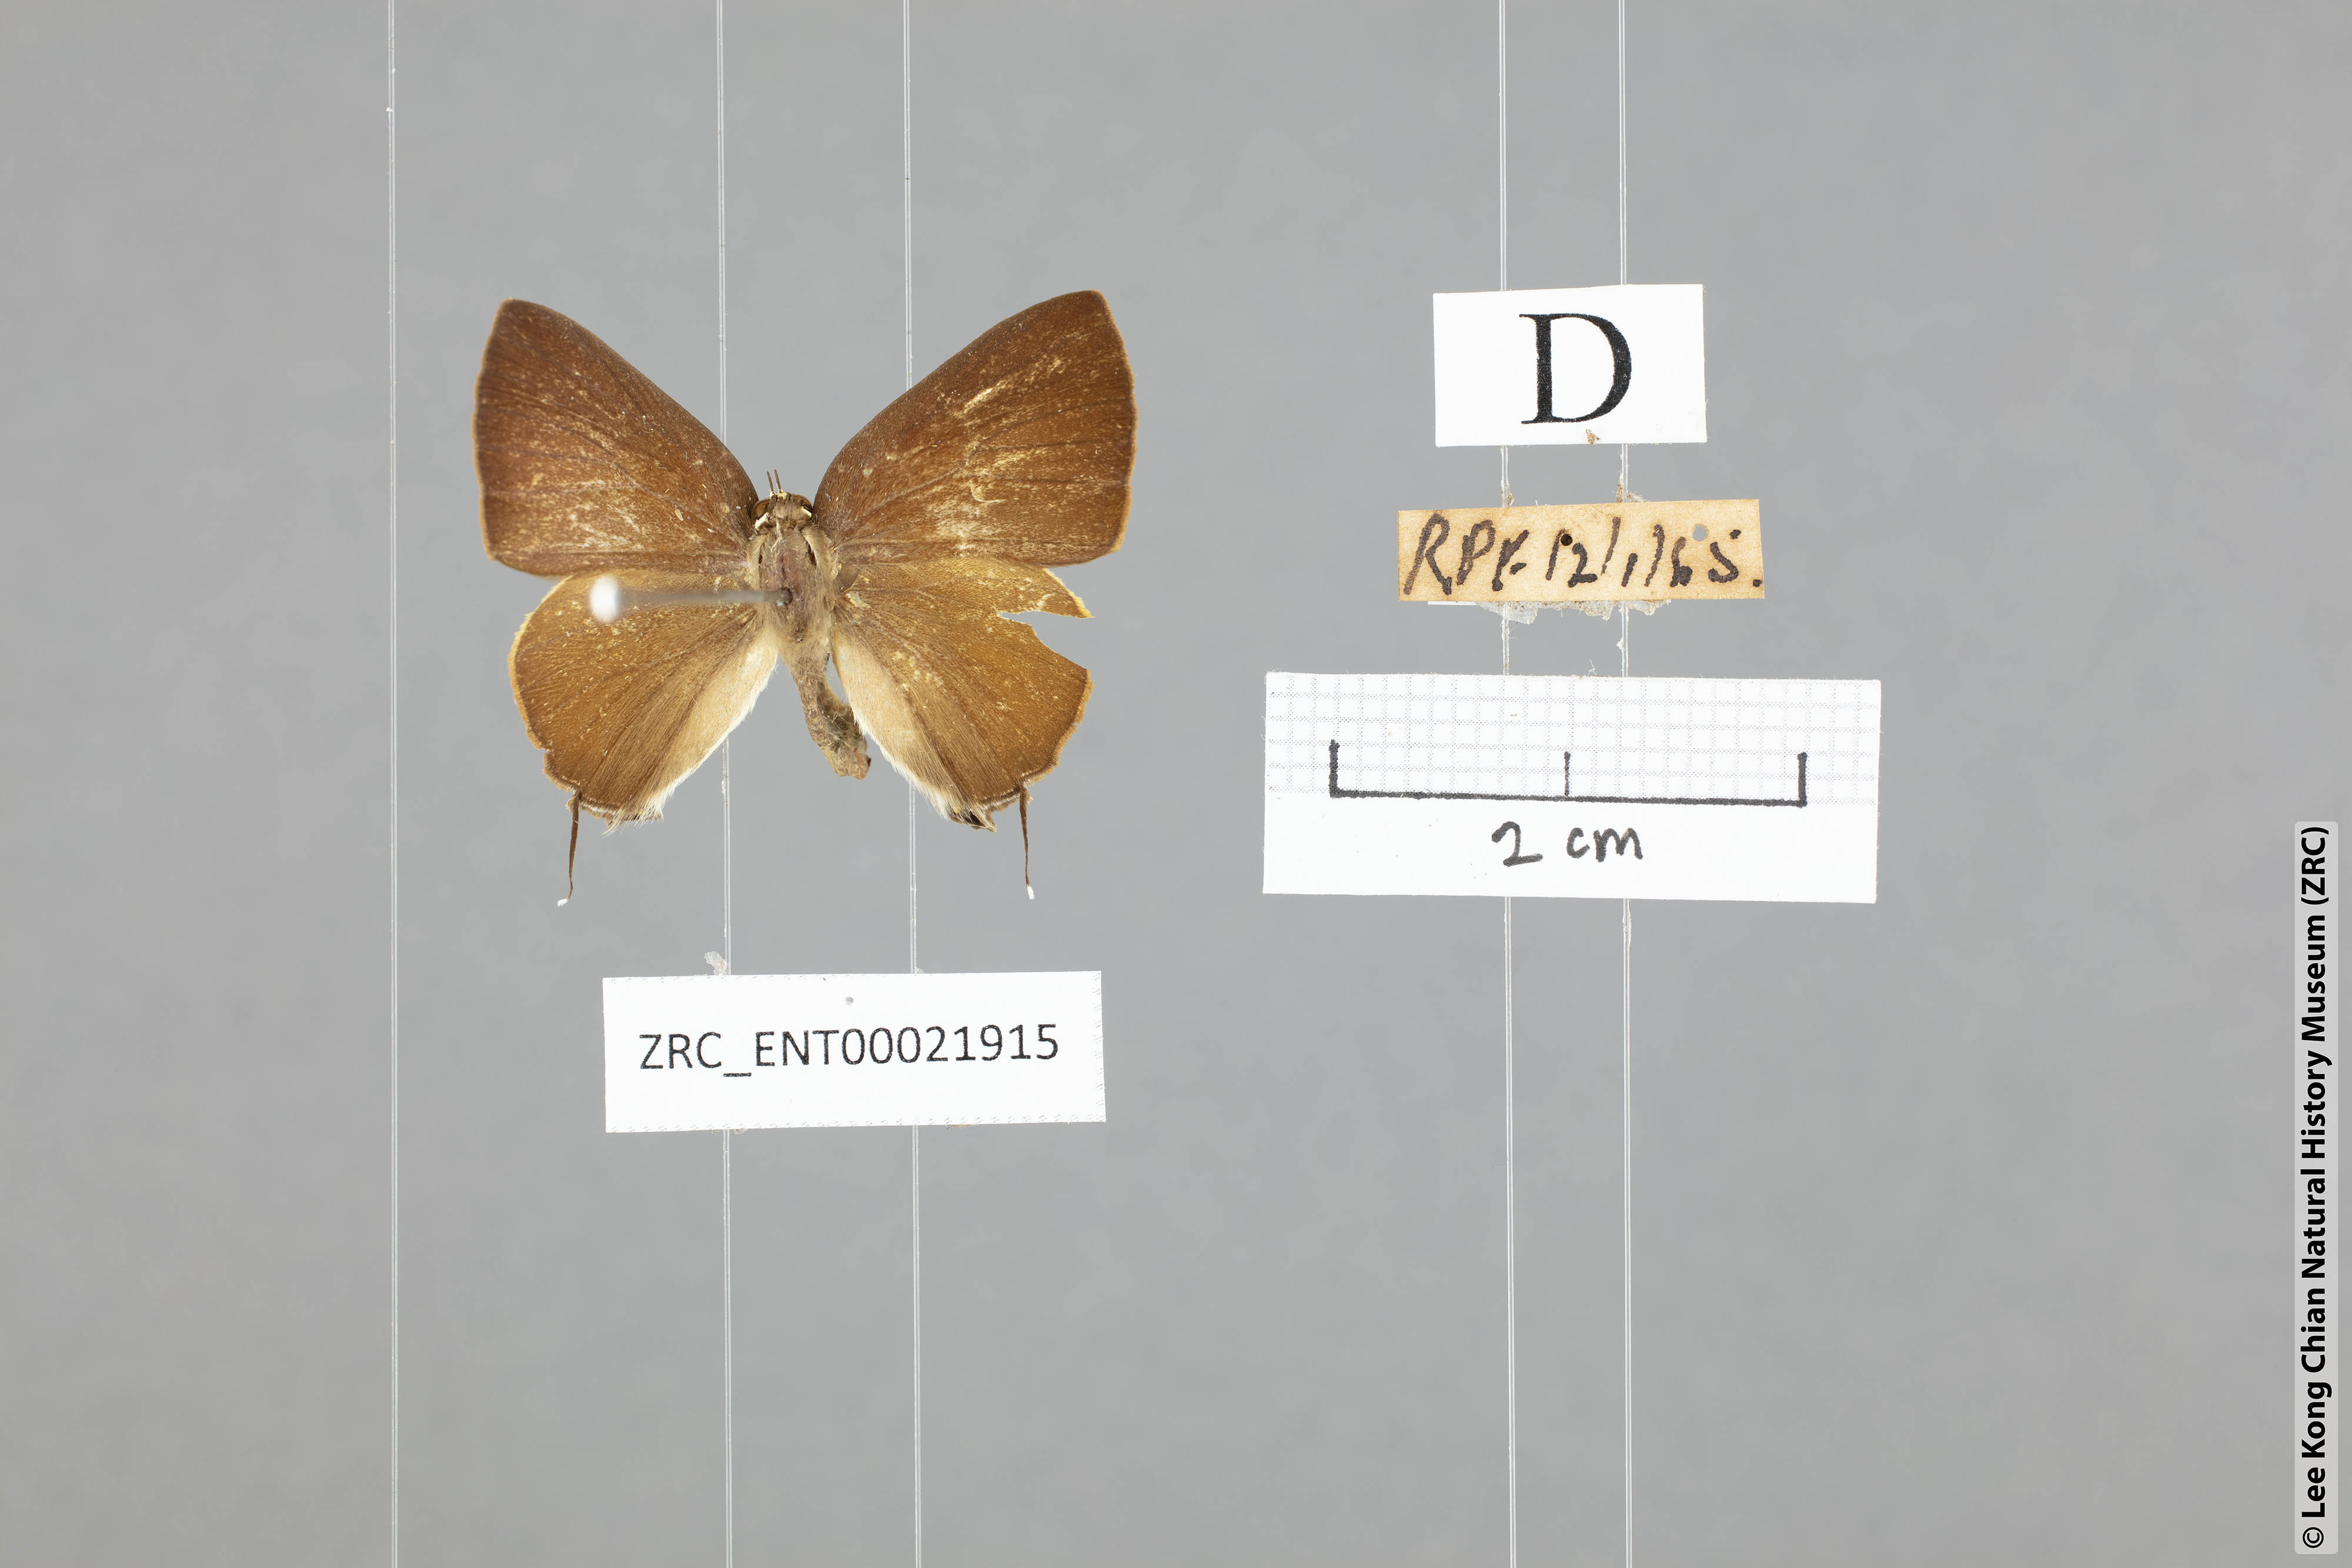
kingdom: Animalia
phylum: Arthropoda
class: Insecta
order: Lepidoptera
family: Lycaenidae
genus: Rapala
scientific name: Rapala suffusa
